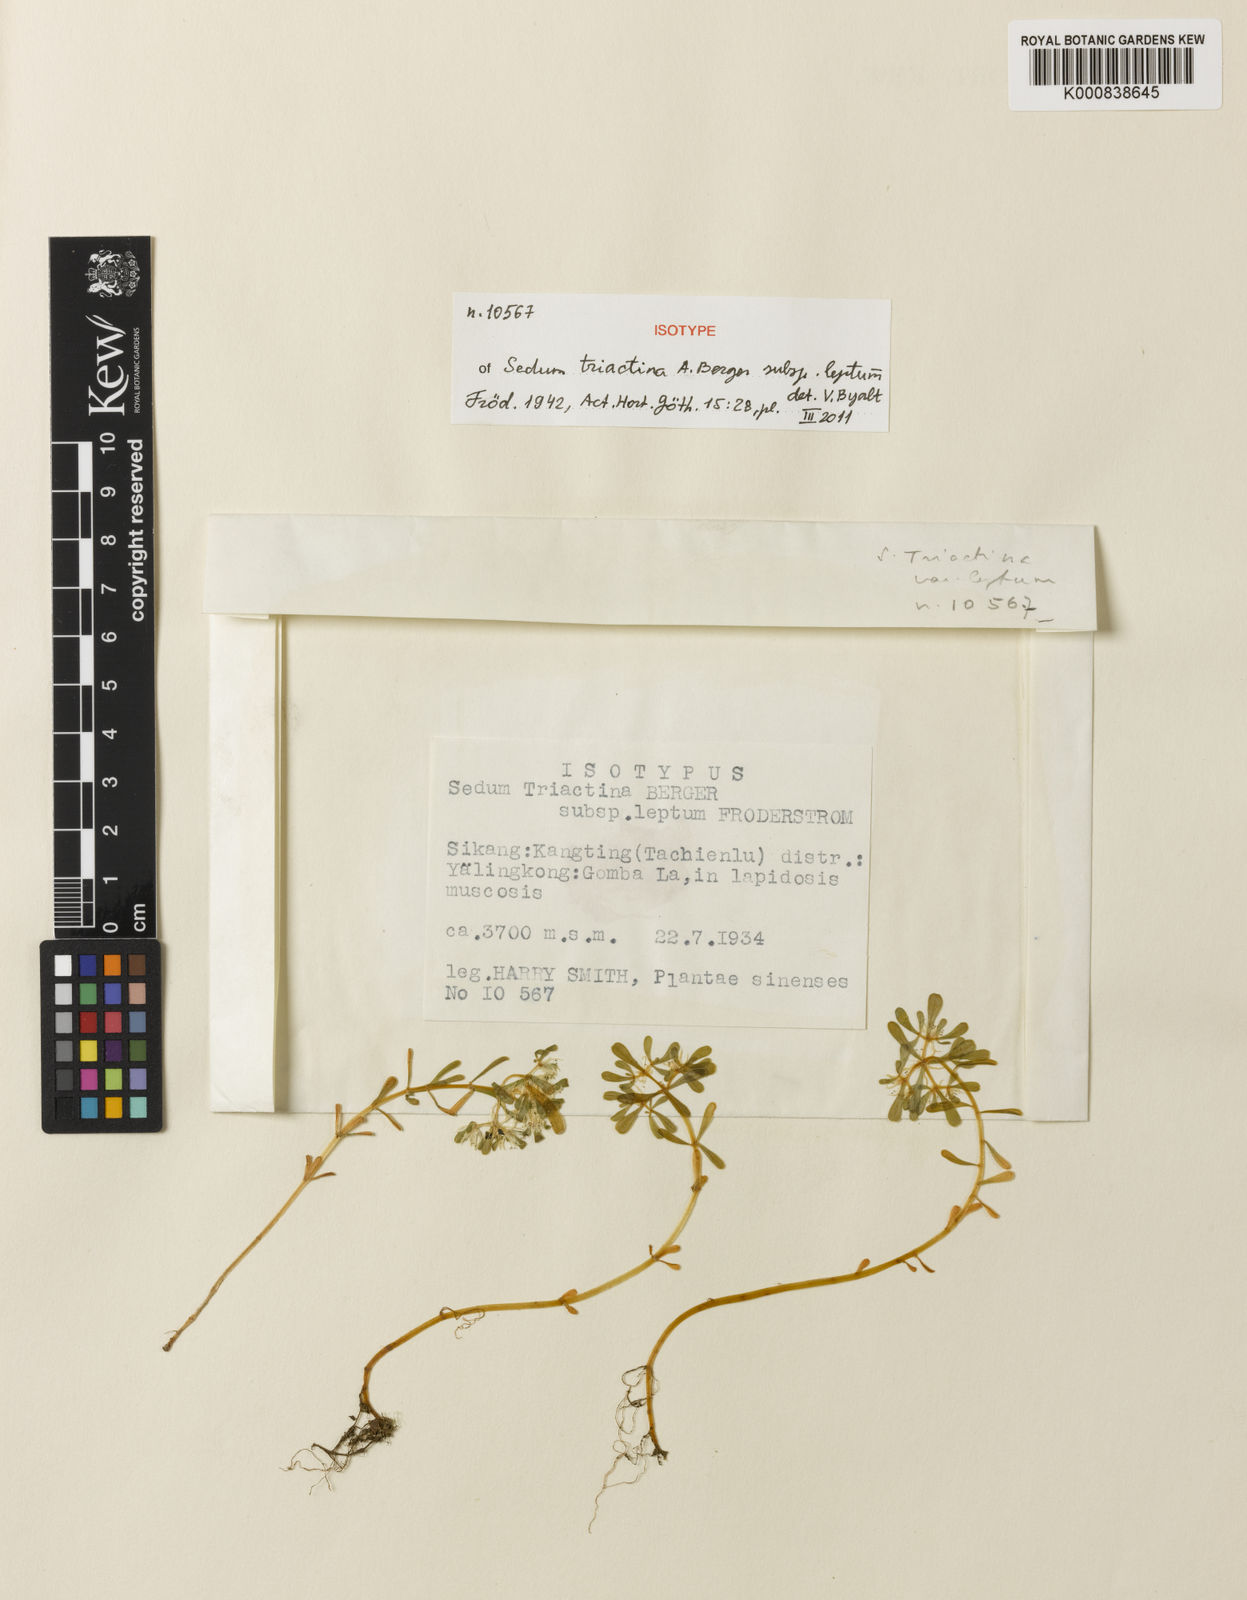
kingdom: Plantae
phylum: Tracheophyta
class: Magnoliopsida
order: Saxifragales
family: Crassulaceae
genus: Sedum
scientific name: Sedum triactina
